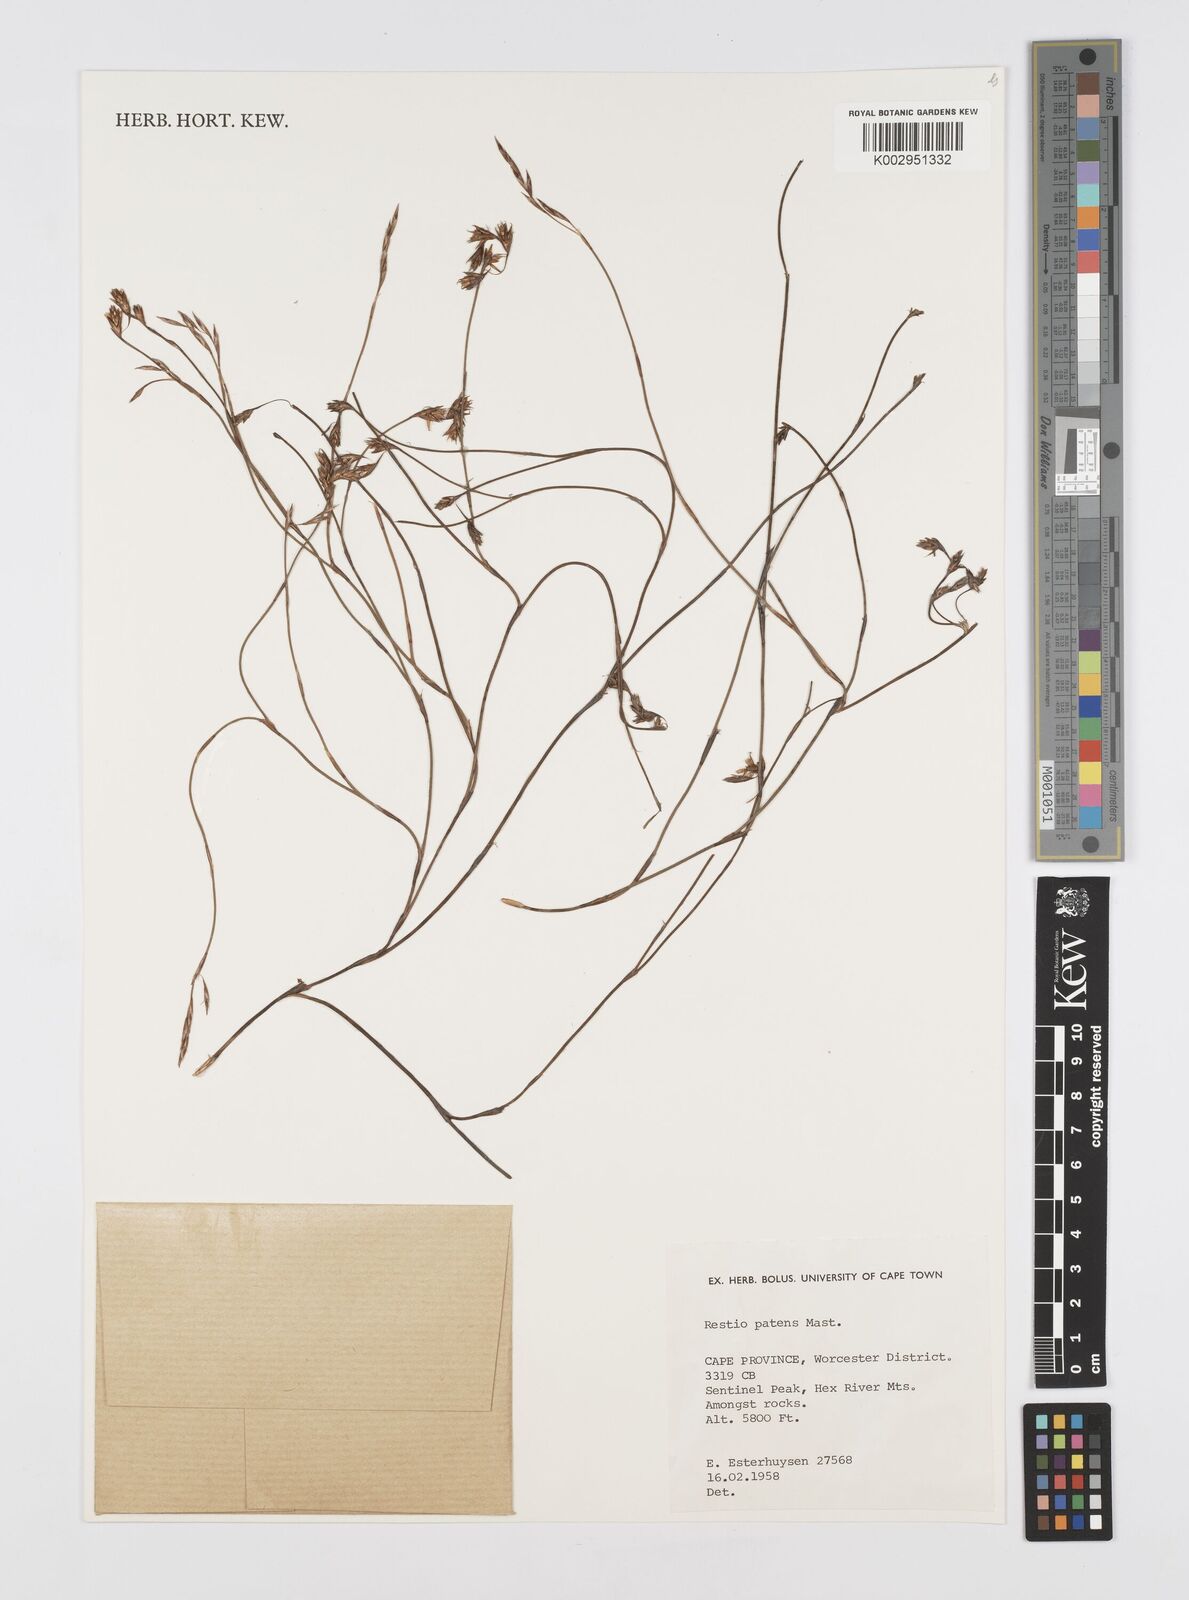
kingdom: Plantae
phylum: Tracheophyta
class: Liliopsida
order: Poales
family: Restionaceae
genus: Restio
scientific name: Restio patens
